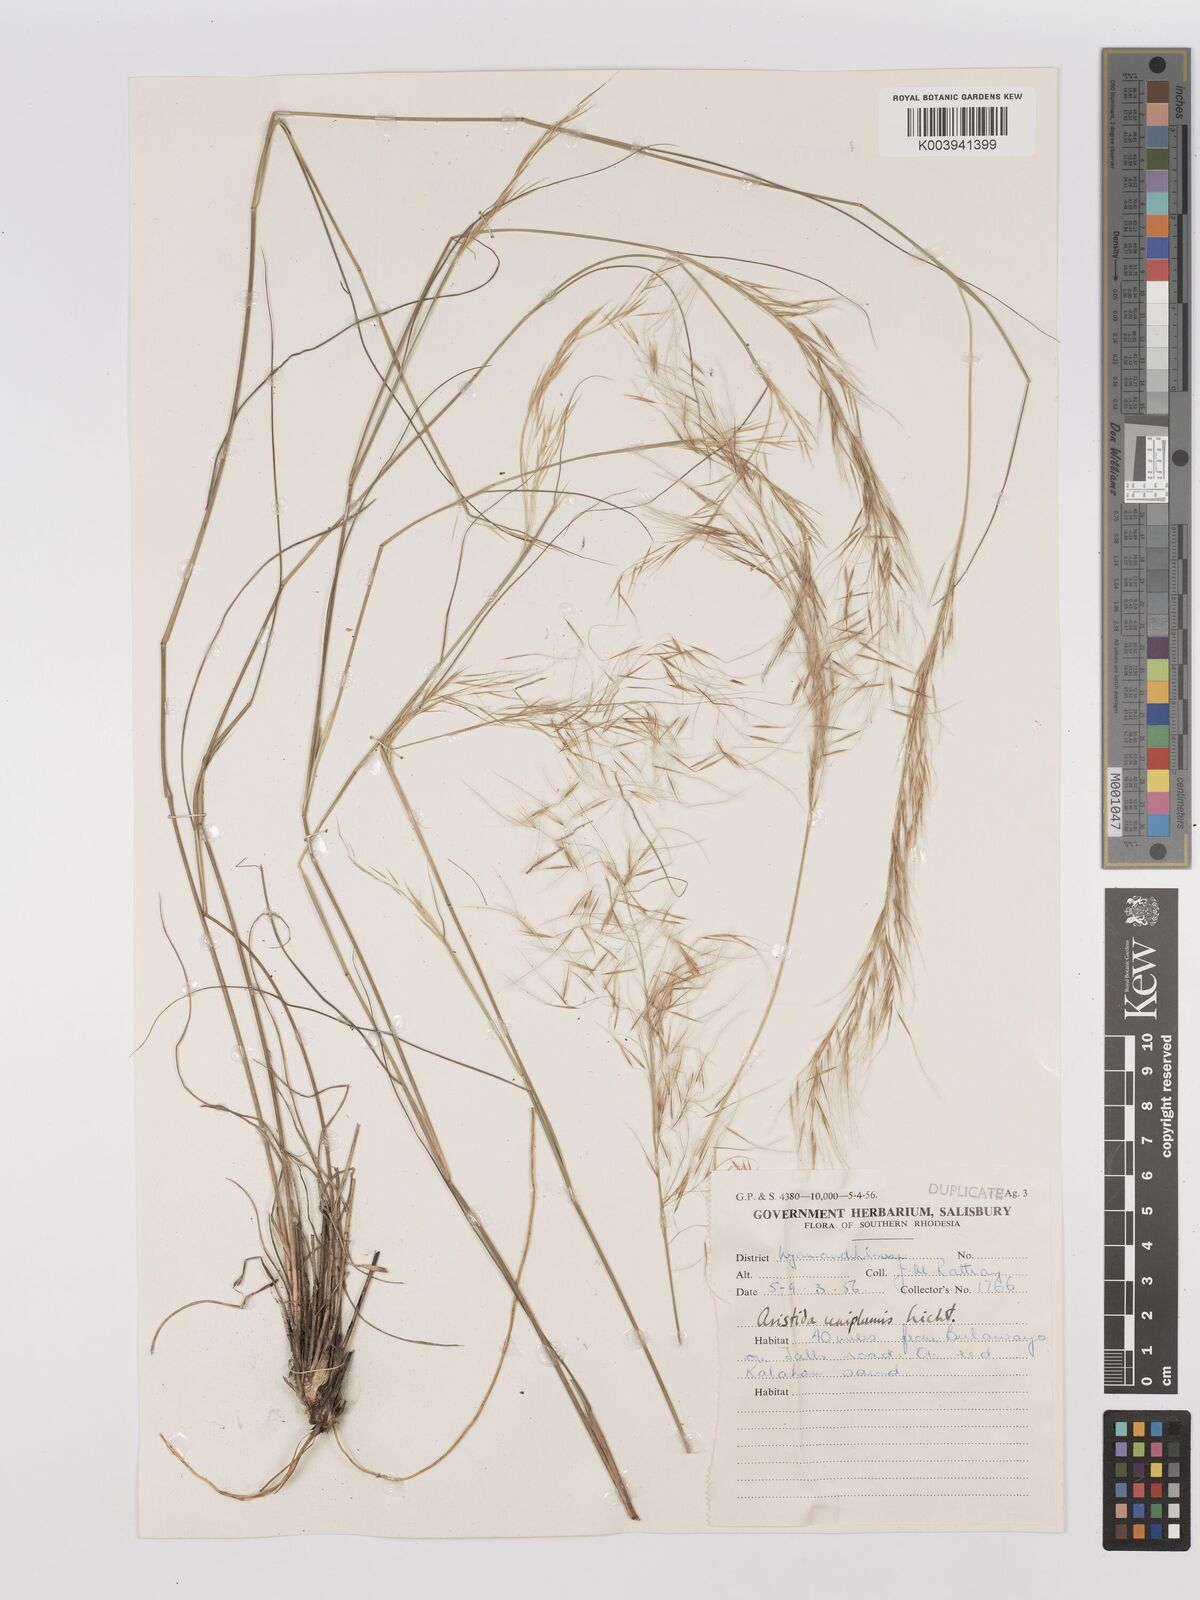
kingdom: Plantae
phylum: Tracheophyta
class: Liliopsida
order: Poales
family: Poaceae
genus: Stipagrostis
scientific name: Stipagrostis uniplumis
